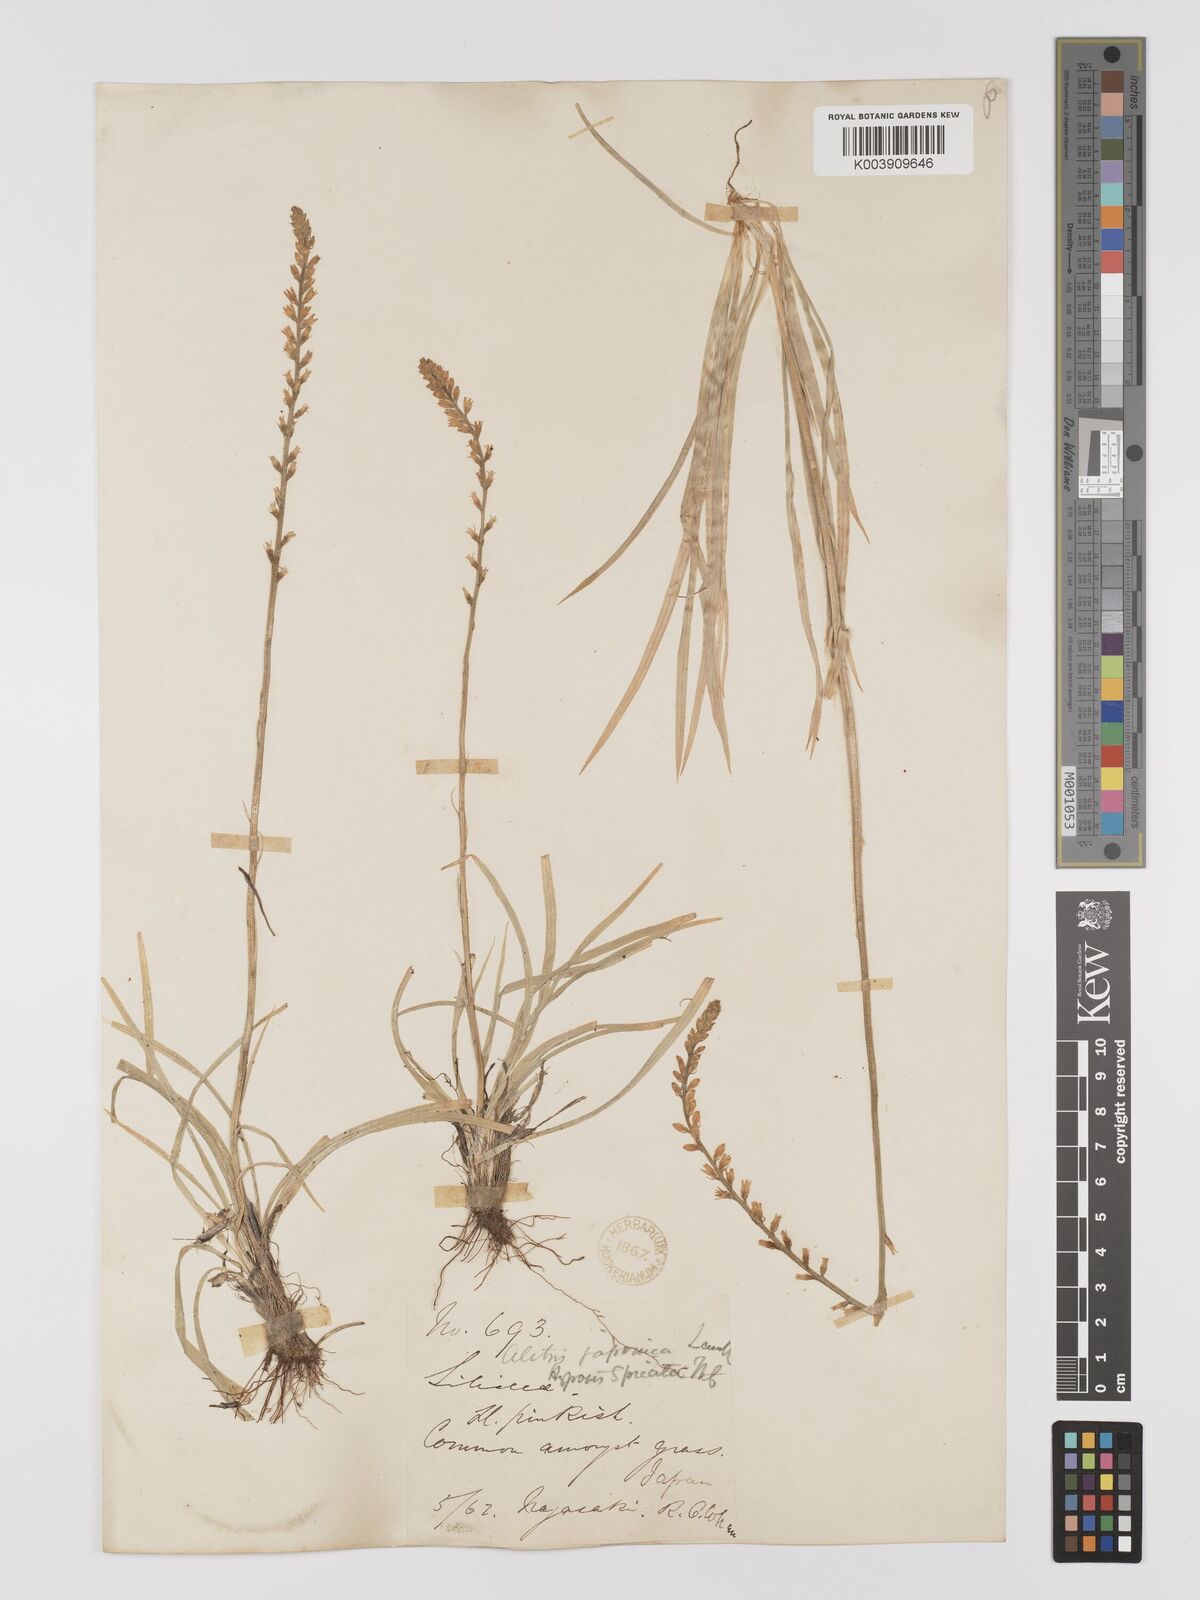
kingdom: Plantae
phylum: Tracheophyta
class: Liliopsida
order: Dioscoreales
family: Nartheciaceae
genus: Aletris
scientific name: Aletris spicata
